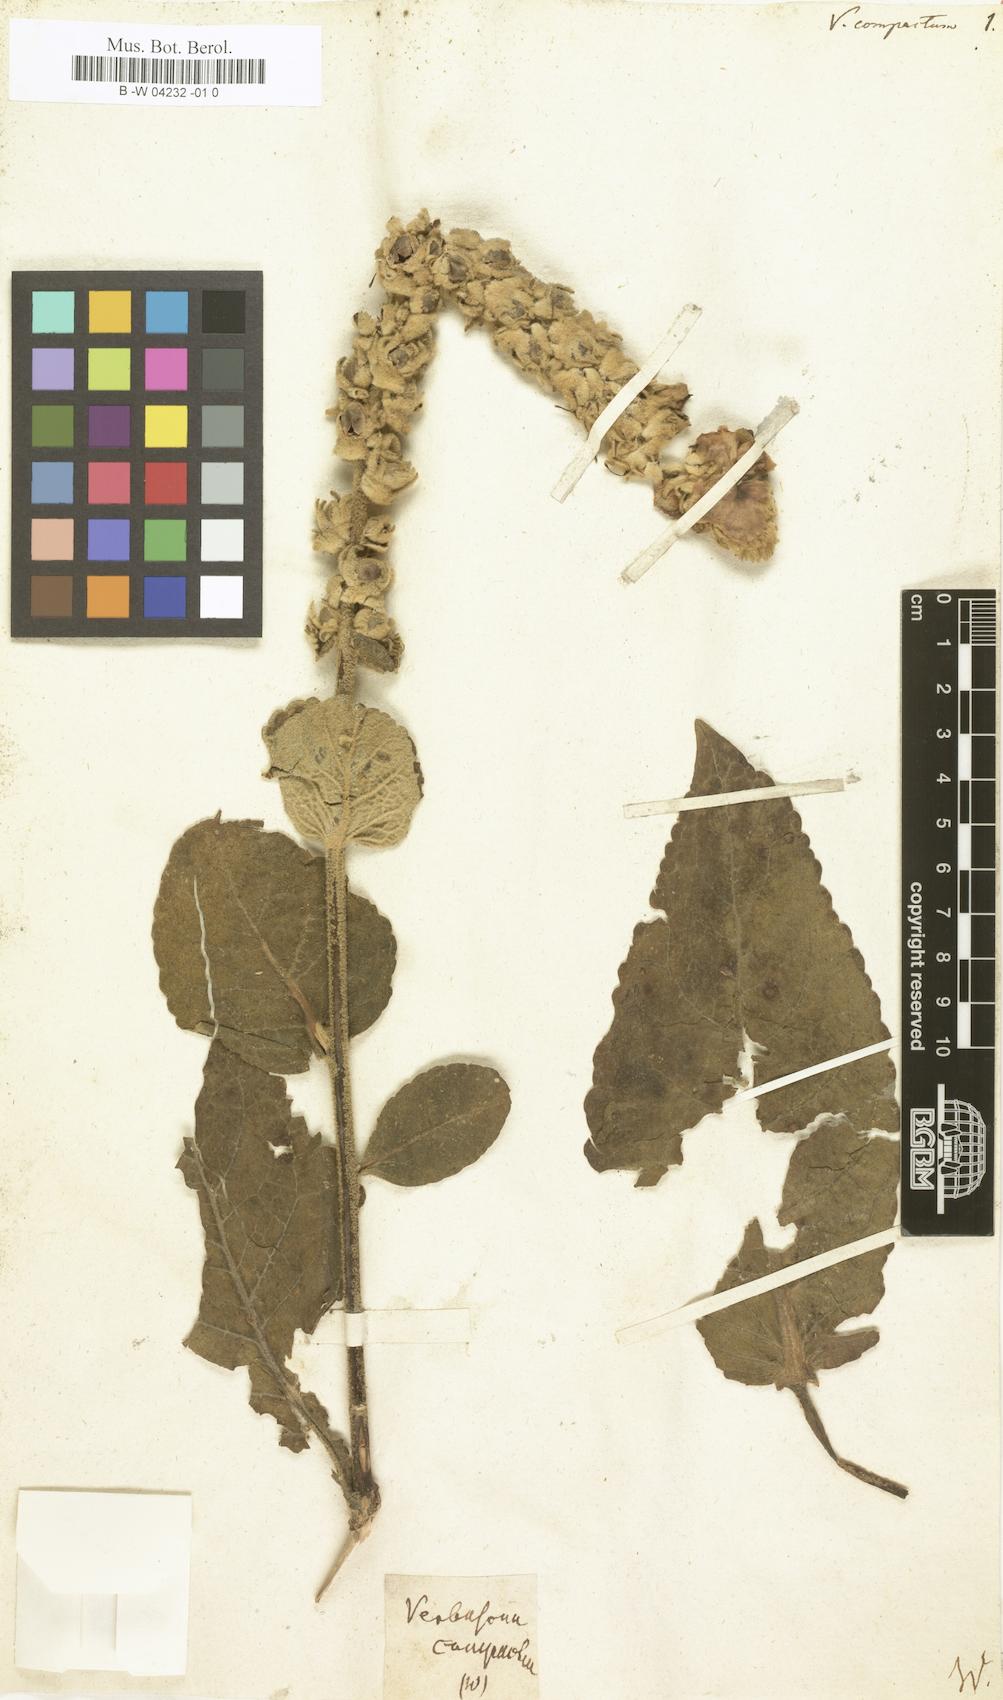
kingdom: Plantae
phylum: Tracheophyta
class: Magnoliopsida
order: Lamiales
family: Scrophulariaceae
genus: Verbascum
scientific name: Verbascum
